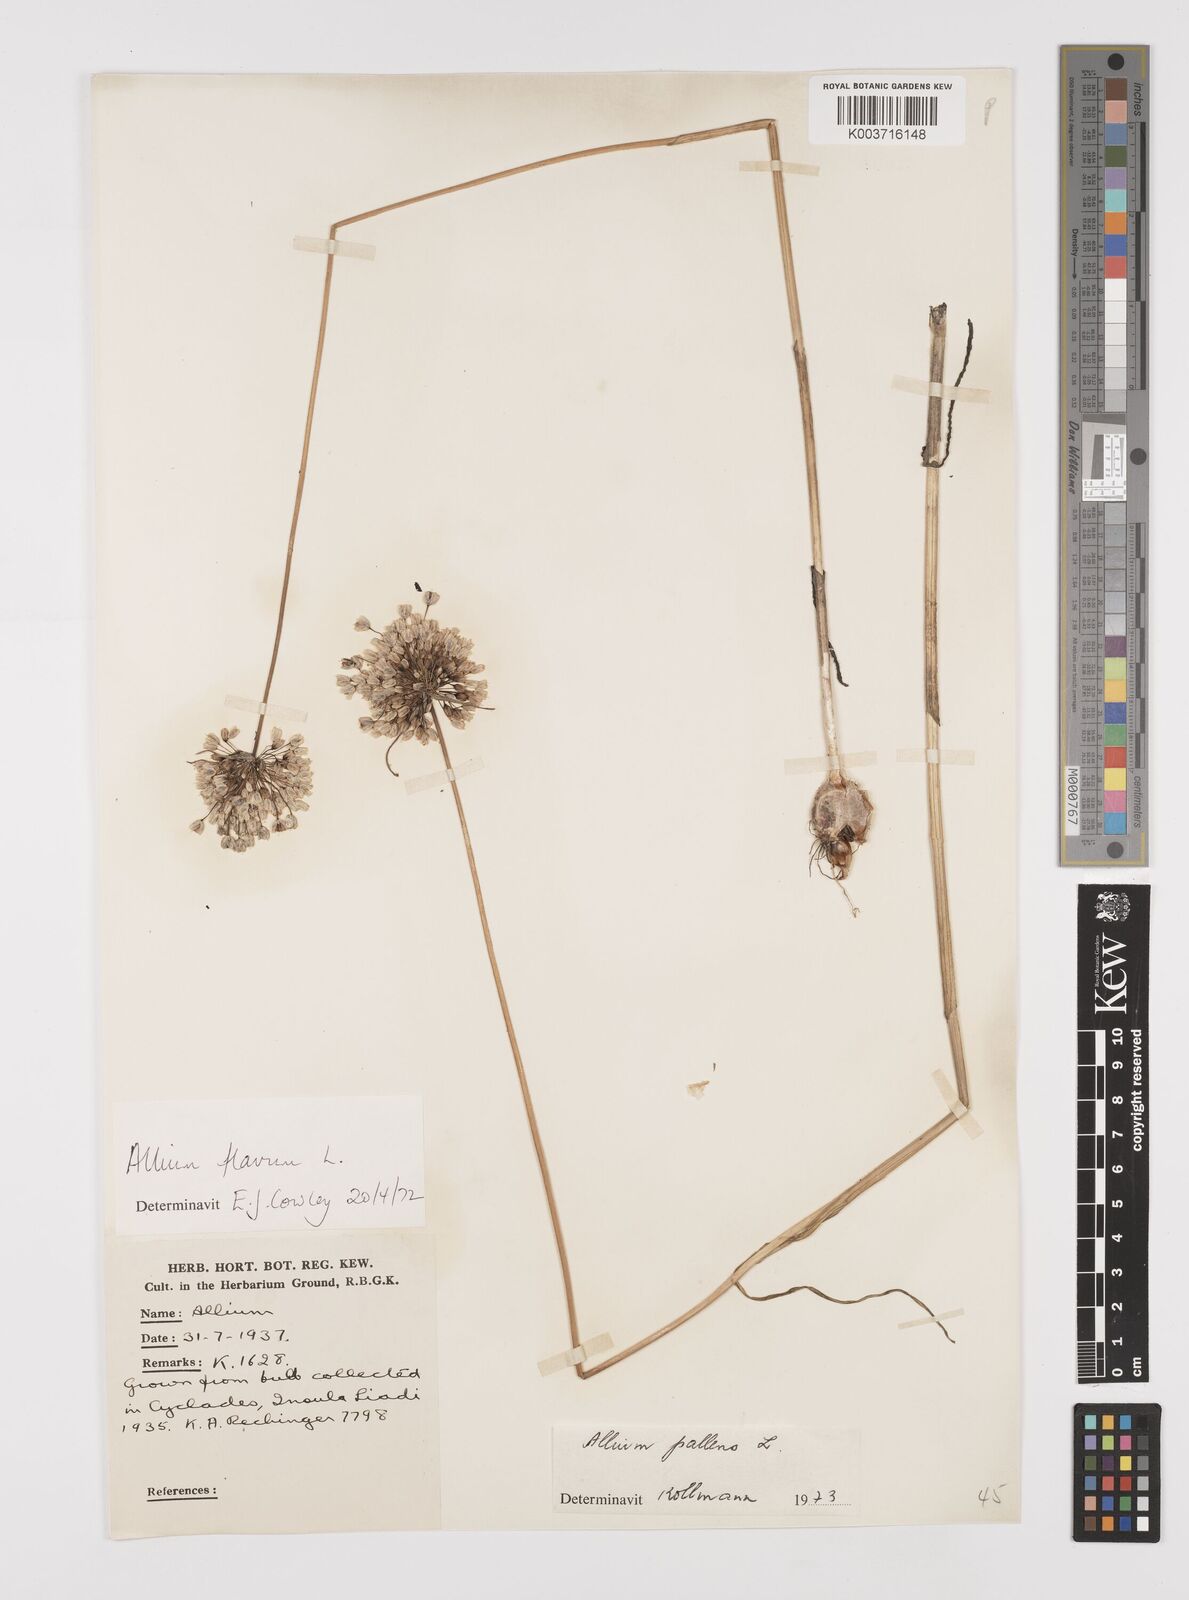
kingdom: Plantae
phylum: Tracheophyta
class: Liliopsida
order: Asparagales
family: Amaryllidaceae
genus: Allium
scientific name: Allium pallens
